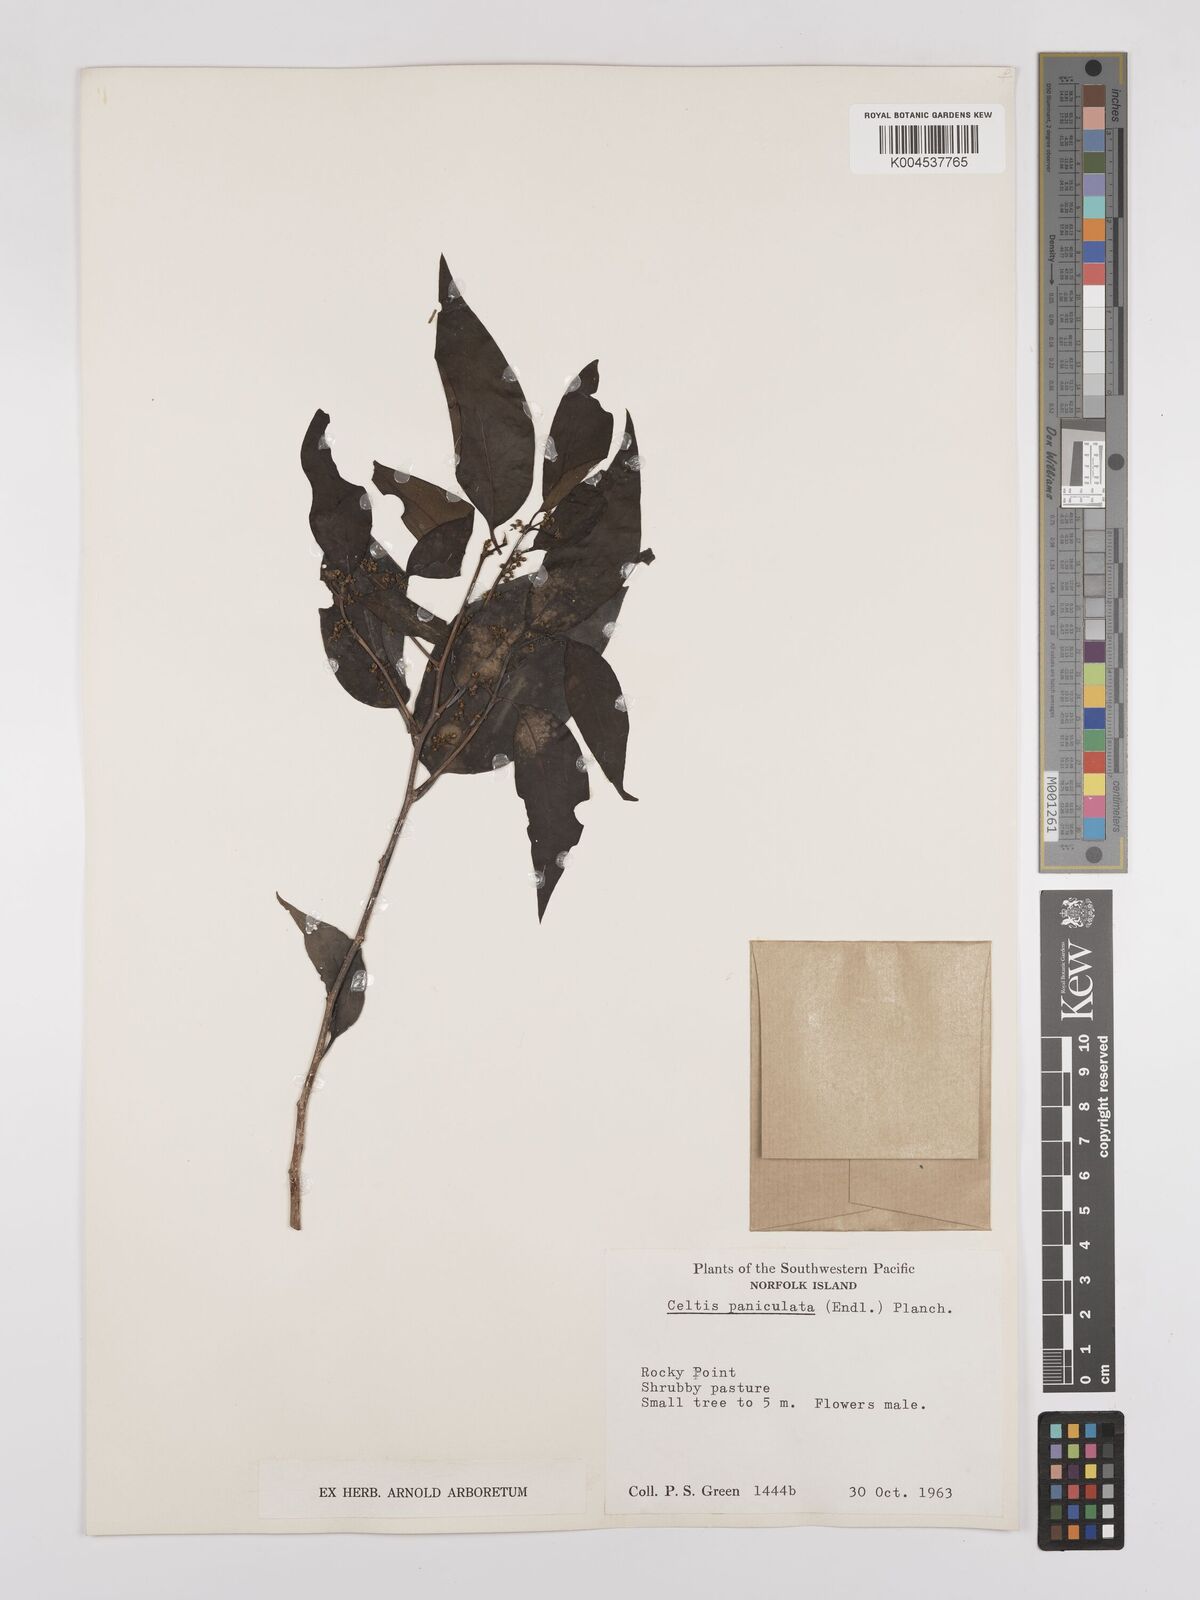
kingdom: Plantae
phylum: Tracheophyta
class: Magnoliopsida
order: Rosales
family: Cannabaceae
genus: Celtis
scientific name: Celtis paniculata
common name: Silky celtis
